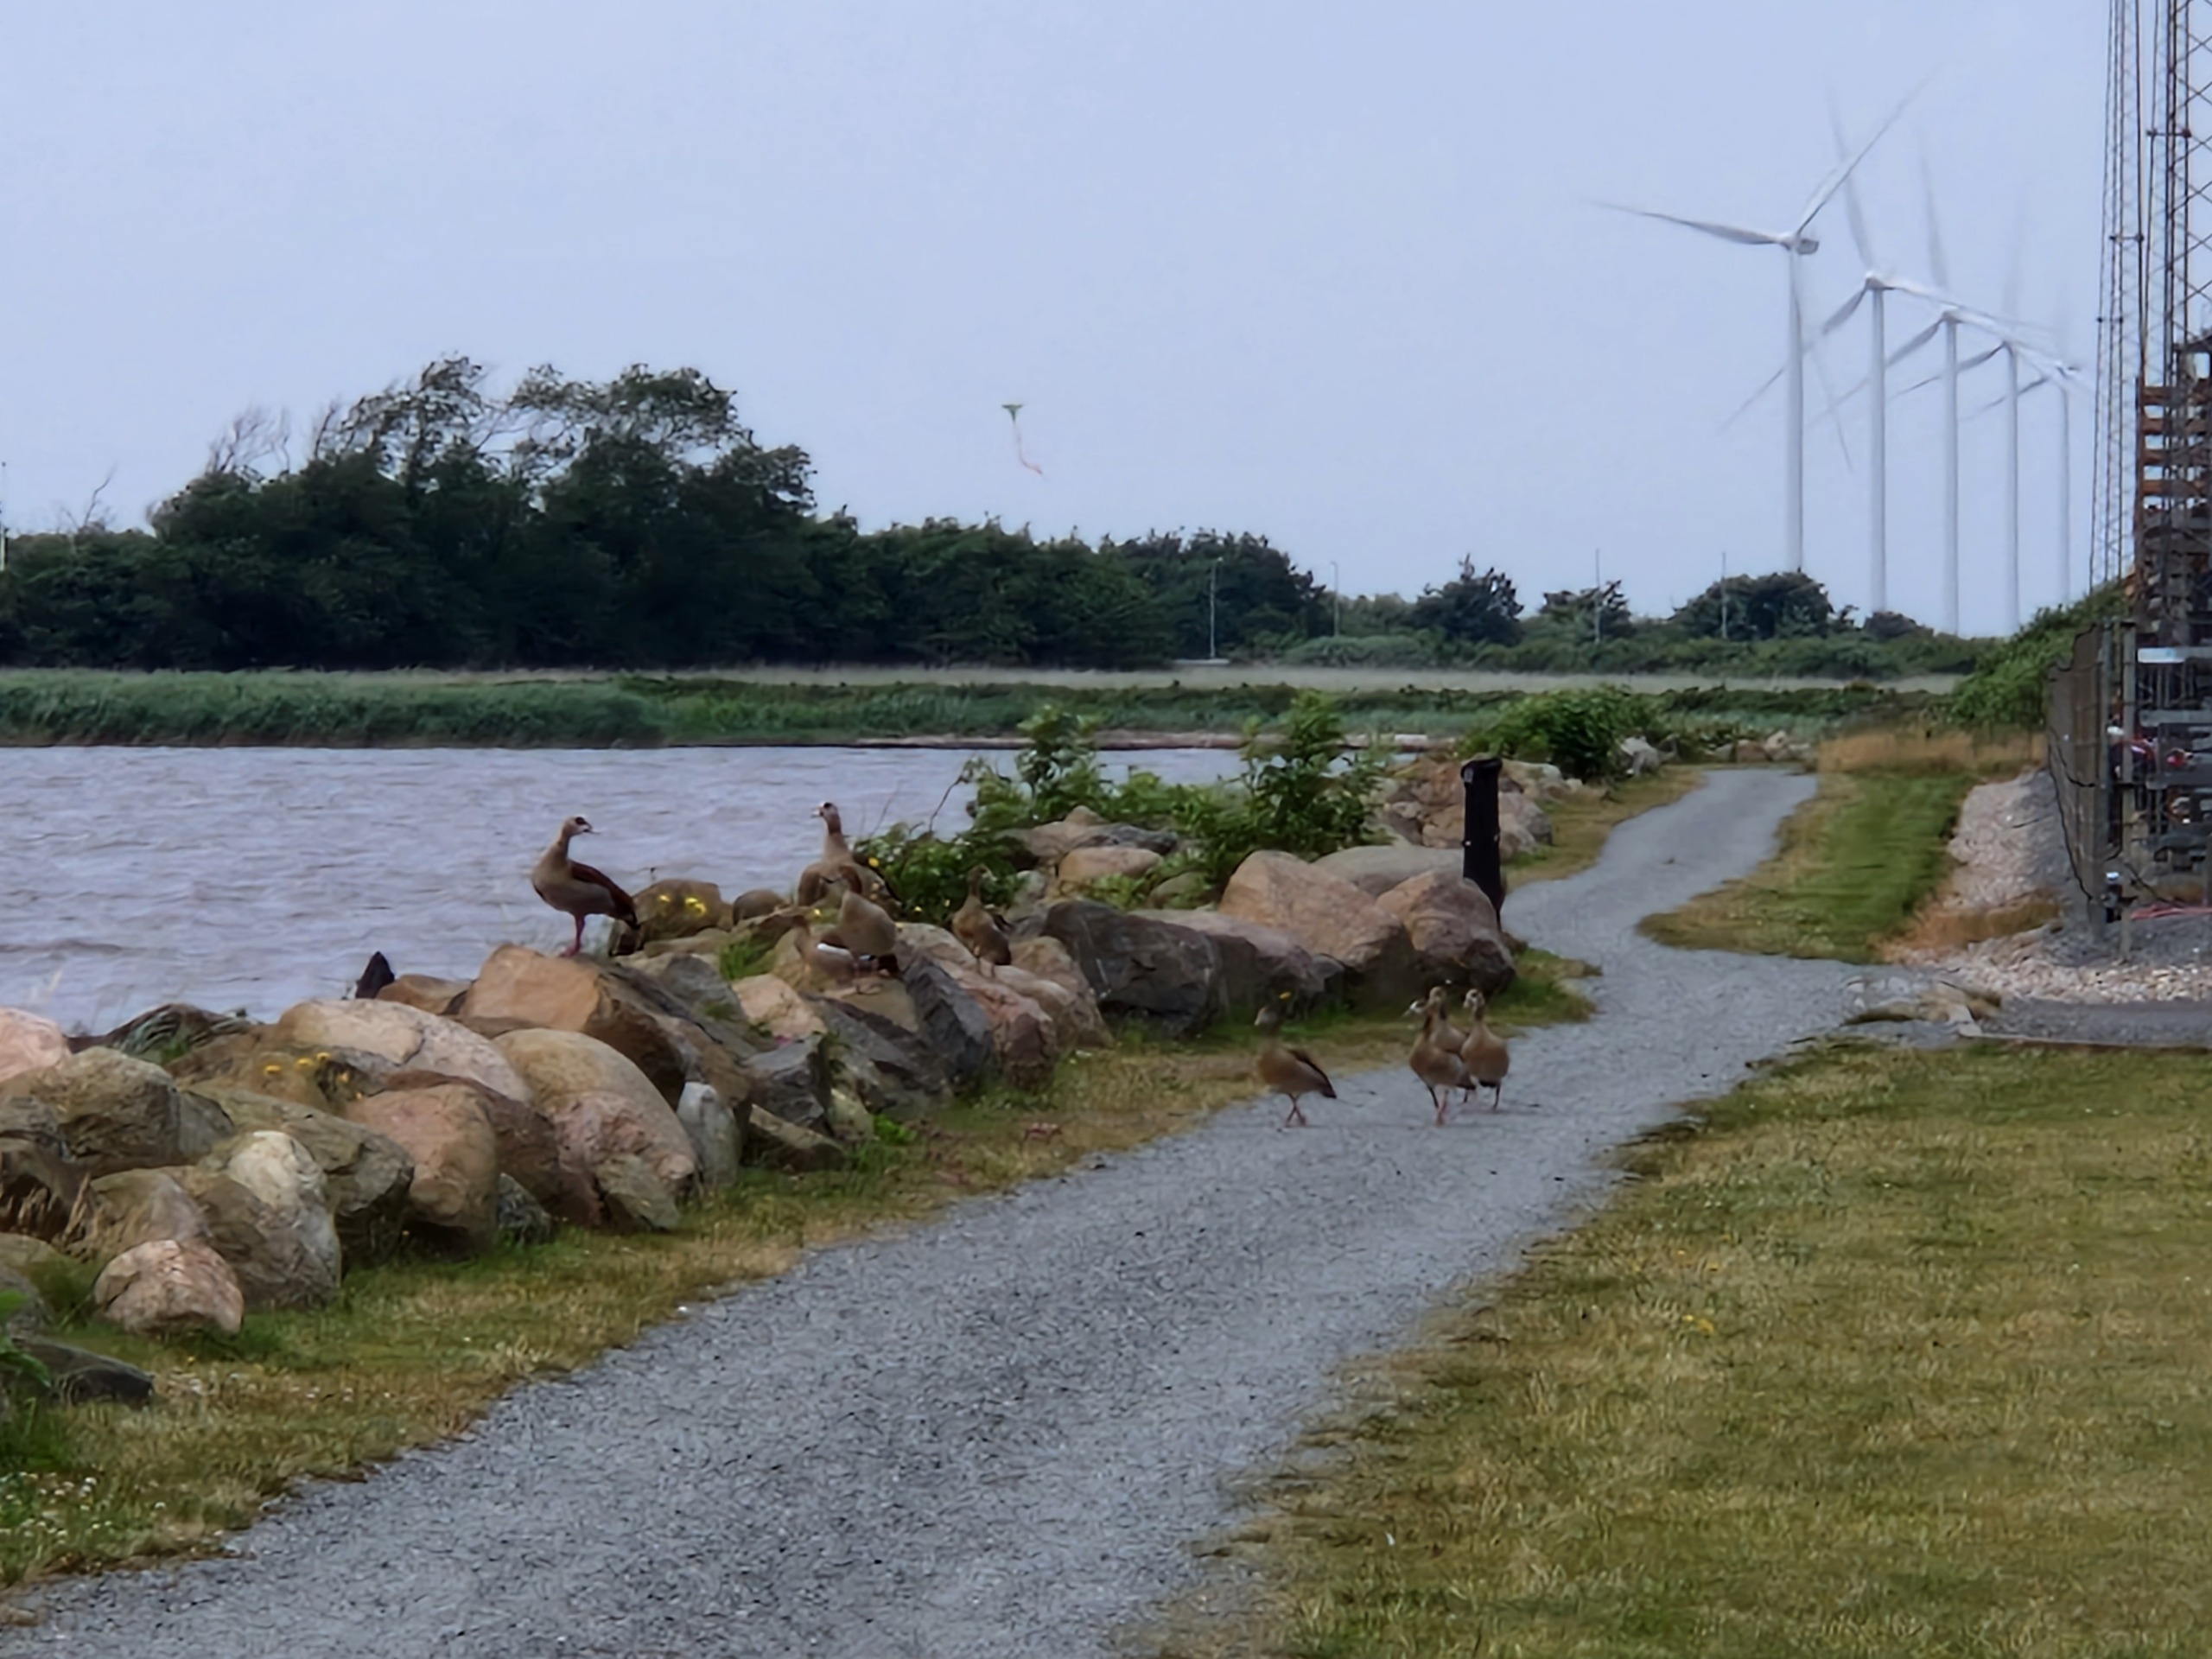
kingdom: Animalia
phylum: Chordata
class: Aves
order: Anseriformes
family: Anatidae
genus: Alopochen
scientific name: Alopochen aegyptiaca
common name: Nilgås
